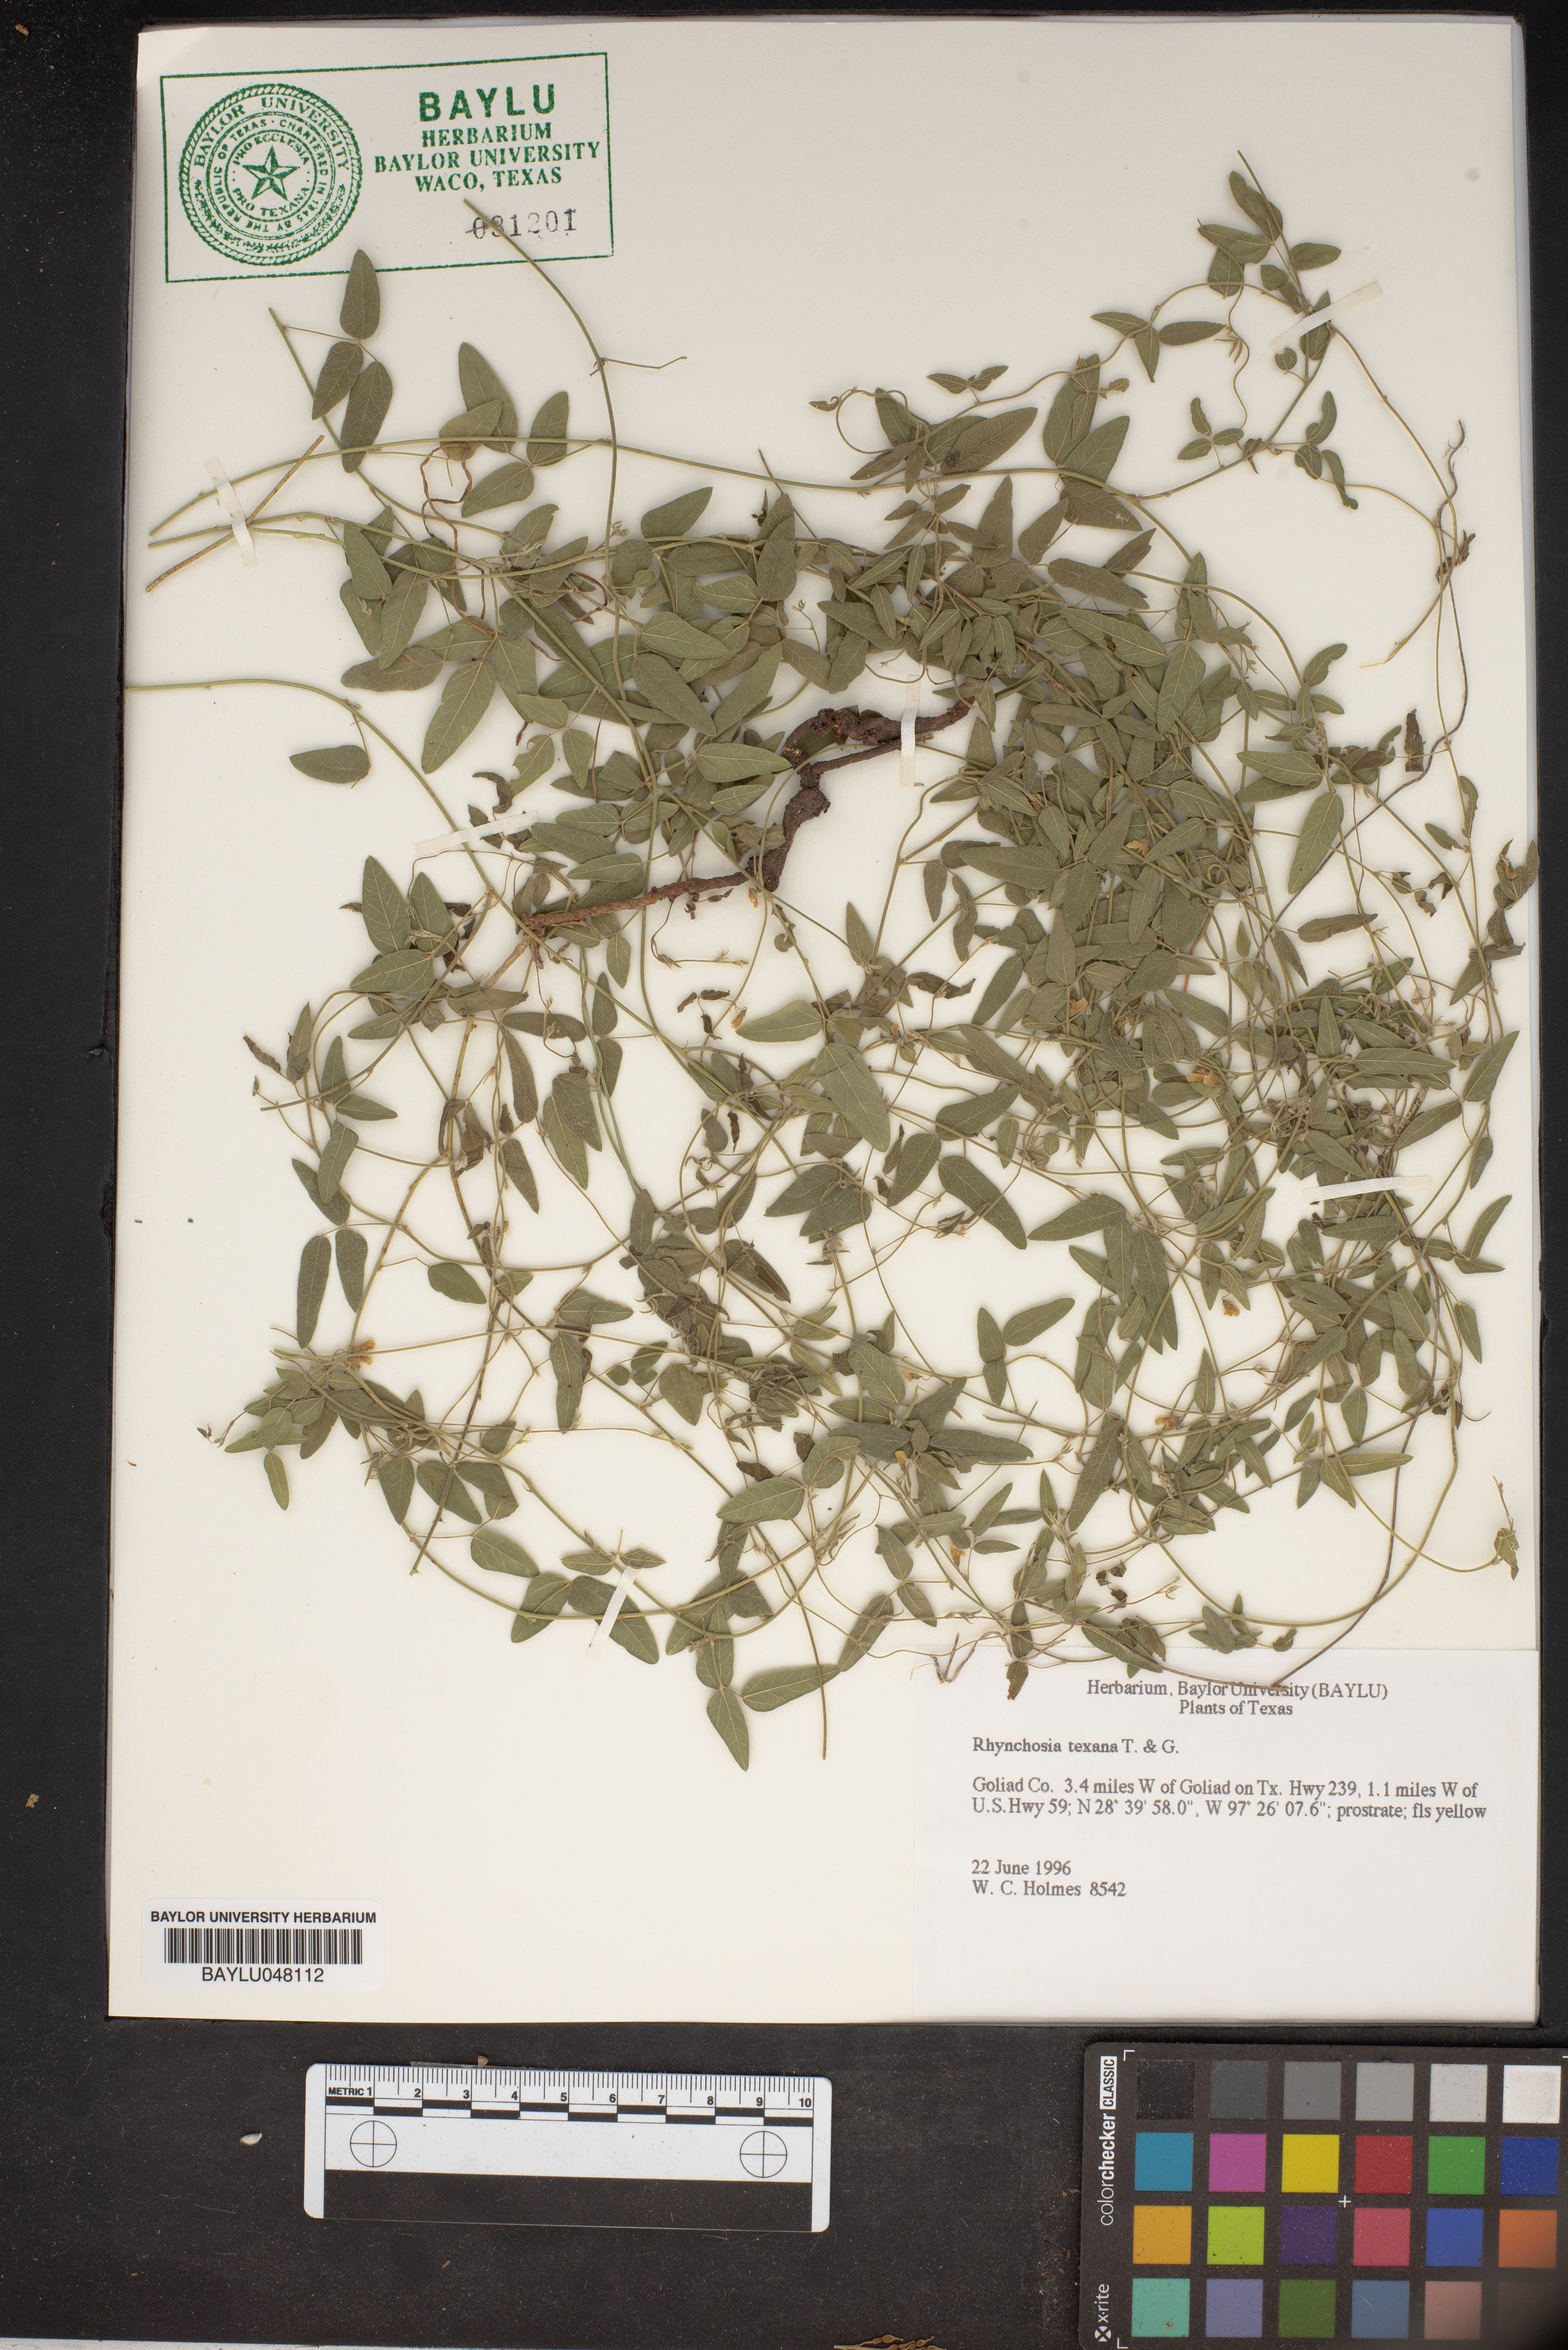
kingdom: Plantae
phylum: Tracheophyta
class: Magnoliopsida
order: Fabales
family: Fabaceae
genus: Rhynchosia
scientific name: Rhynchosia senna
